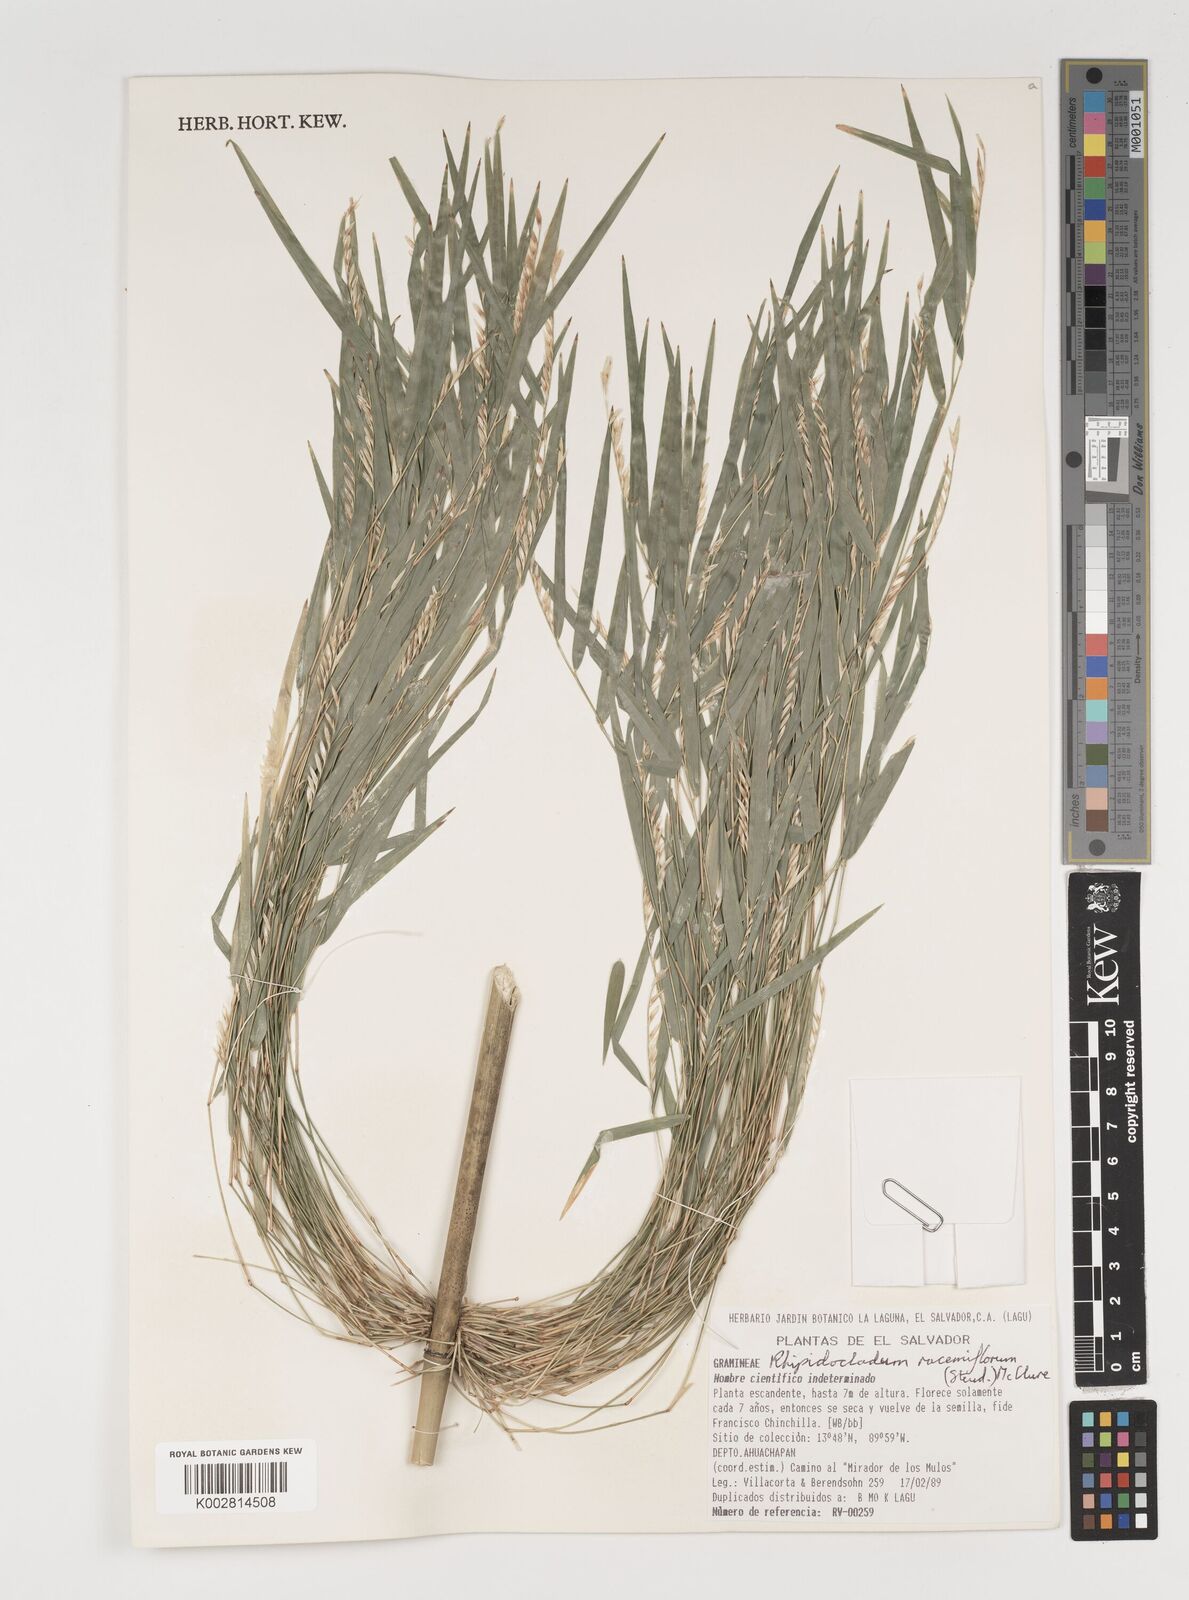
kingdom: Plantae
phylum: Tracheophyta
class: Liliopsida
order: Poales
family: Poaceae
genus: Rhipidocladum
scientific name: Rhipidocladum racemiflorum
